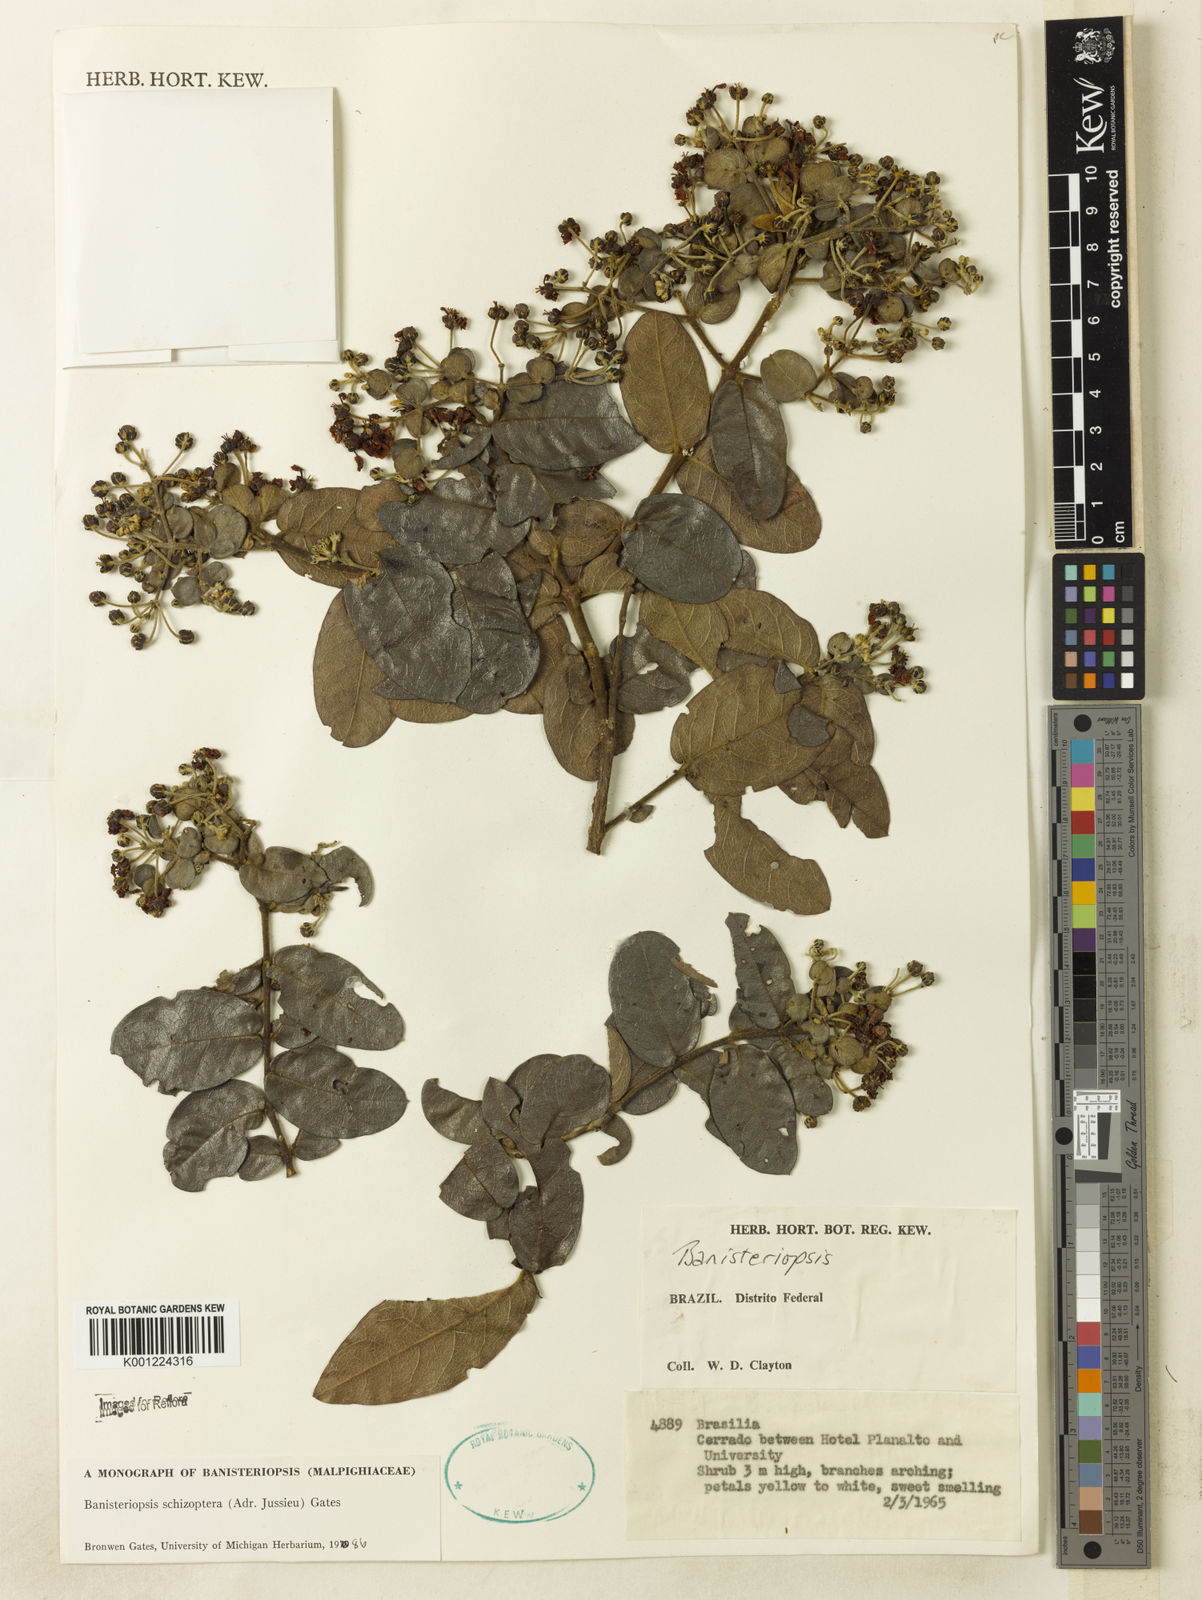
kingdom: Plantae
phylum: Tracheophyta
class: Magnoliopsida
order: Malpighiales
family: Malpighiaceae
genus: Banisteriopsis
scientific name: Banisteriopsis schizoptera
